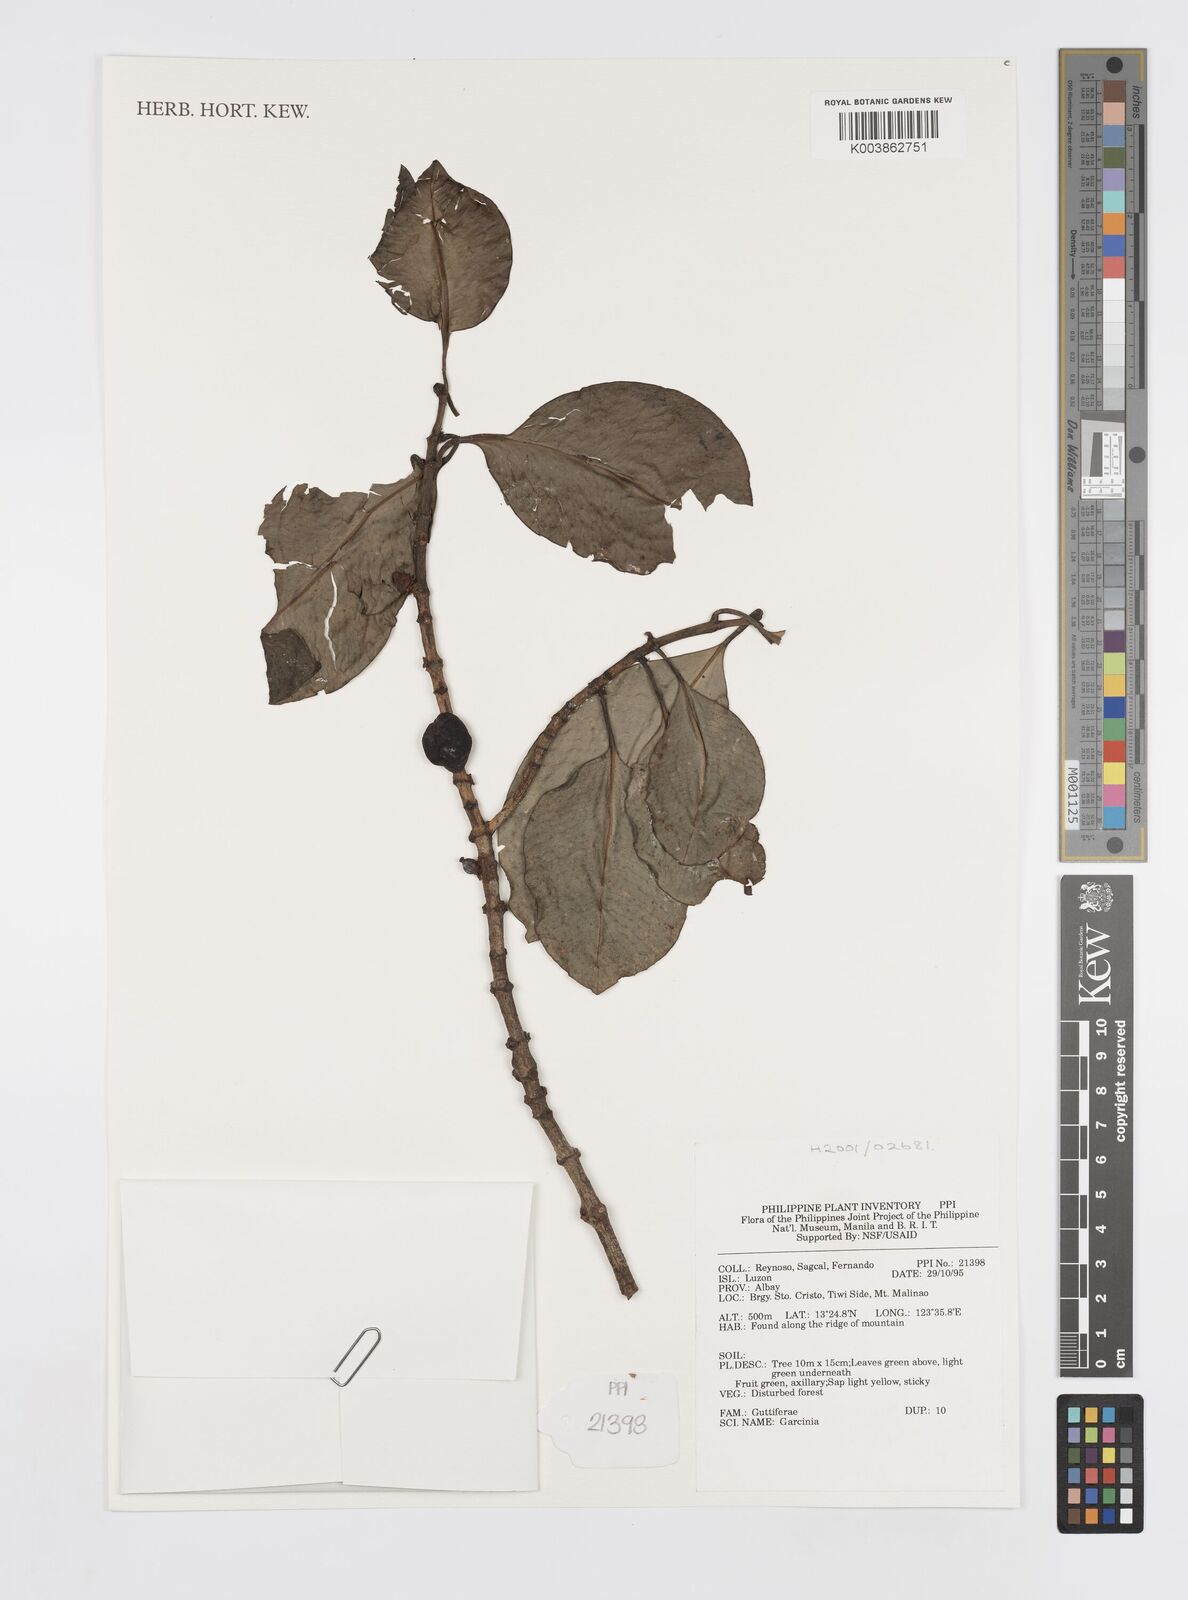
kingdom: Plantae
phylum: Tracheophyta
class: Magnoliopsida
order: Malpighiales
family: Clusiaceae
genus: Garcinia
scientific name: Garcinia
